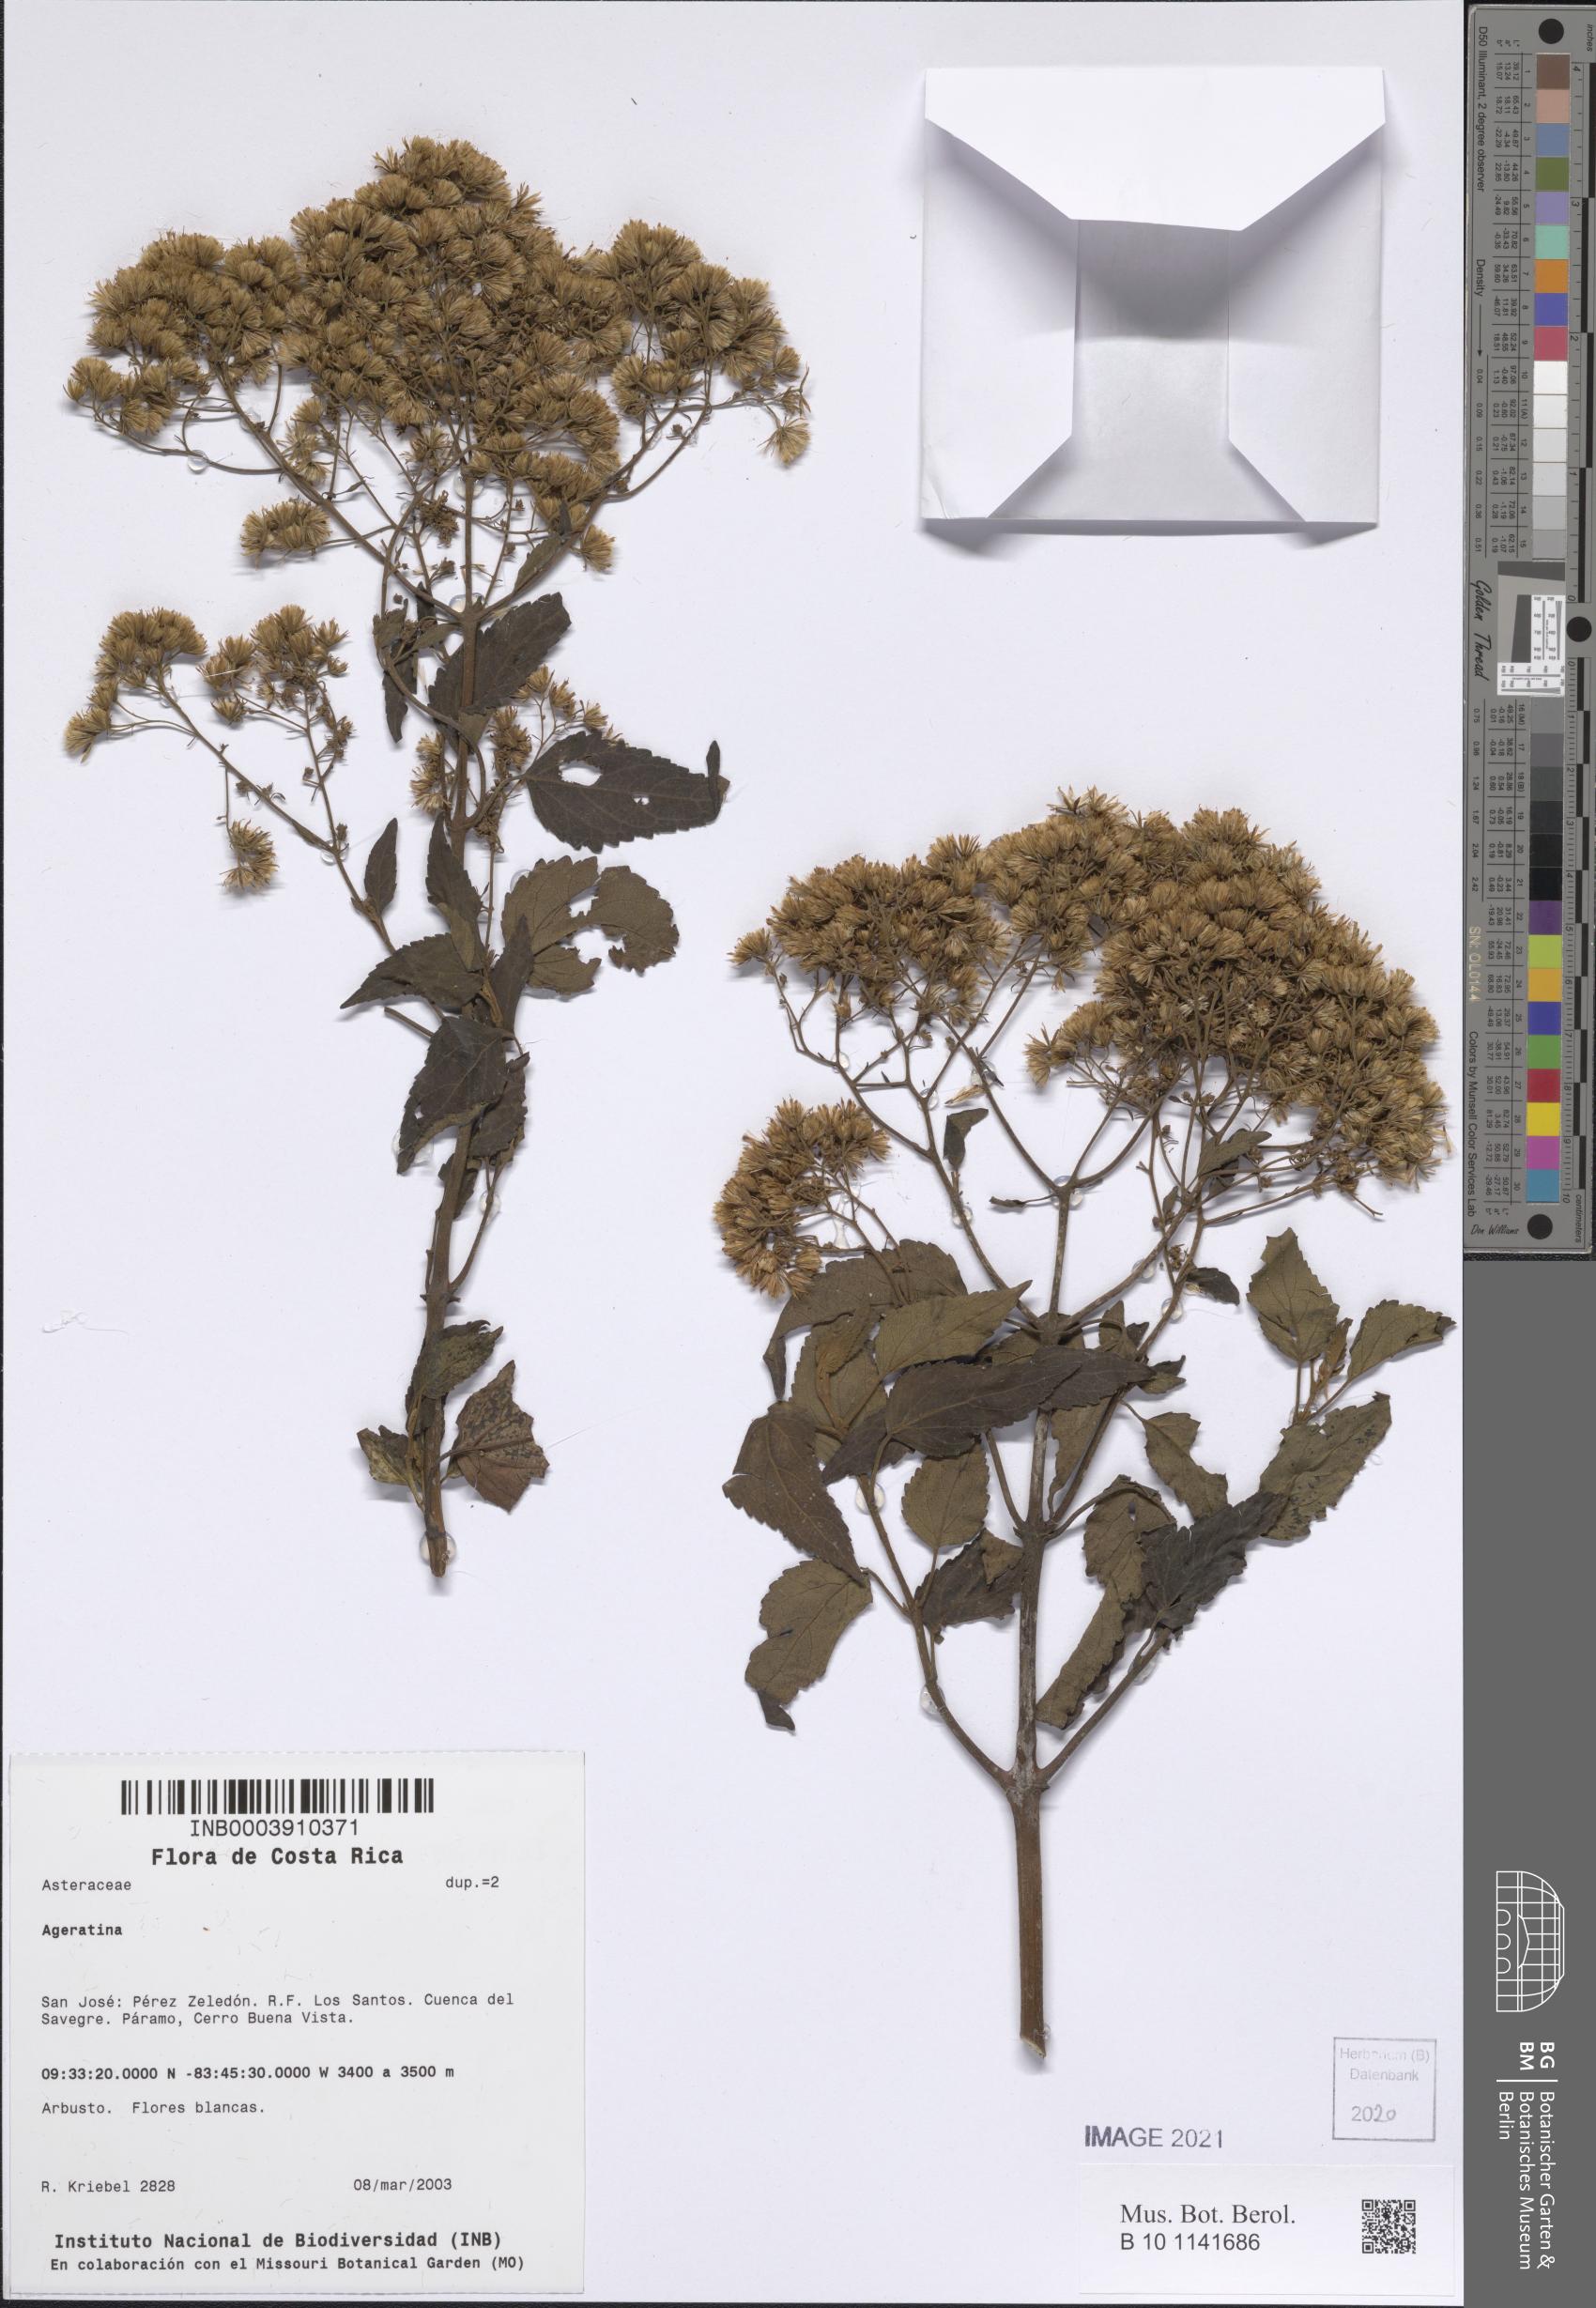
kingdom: Plantae
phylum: Tracheophyta
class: Magnoliopsida
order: Asterales
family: Asteraceae
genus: Ageratina
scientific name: Ageratina
